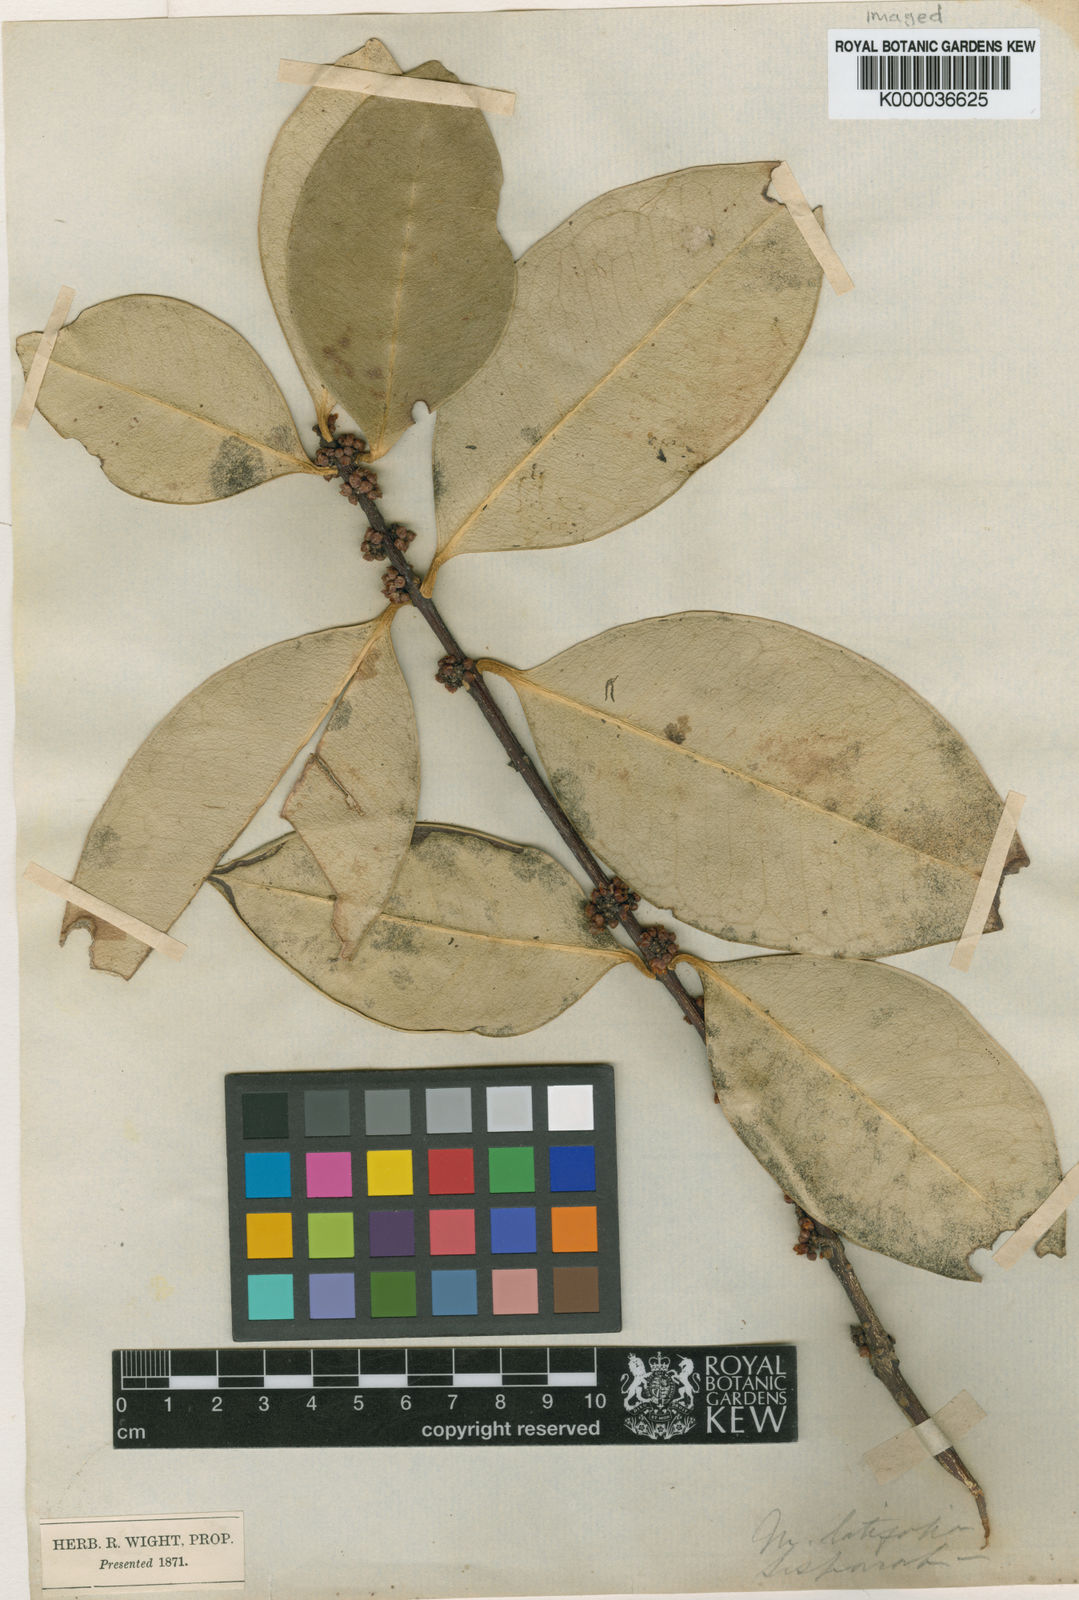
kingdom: Plantae
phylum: Tracheophyta
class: Magnoliopsida
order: Celastrales
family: Celastraceae
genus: Microtropis
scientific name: Microtropis latifolia
